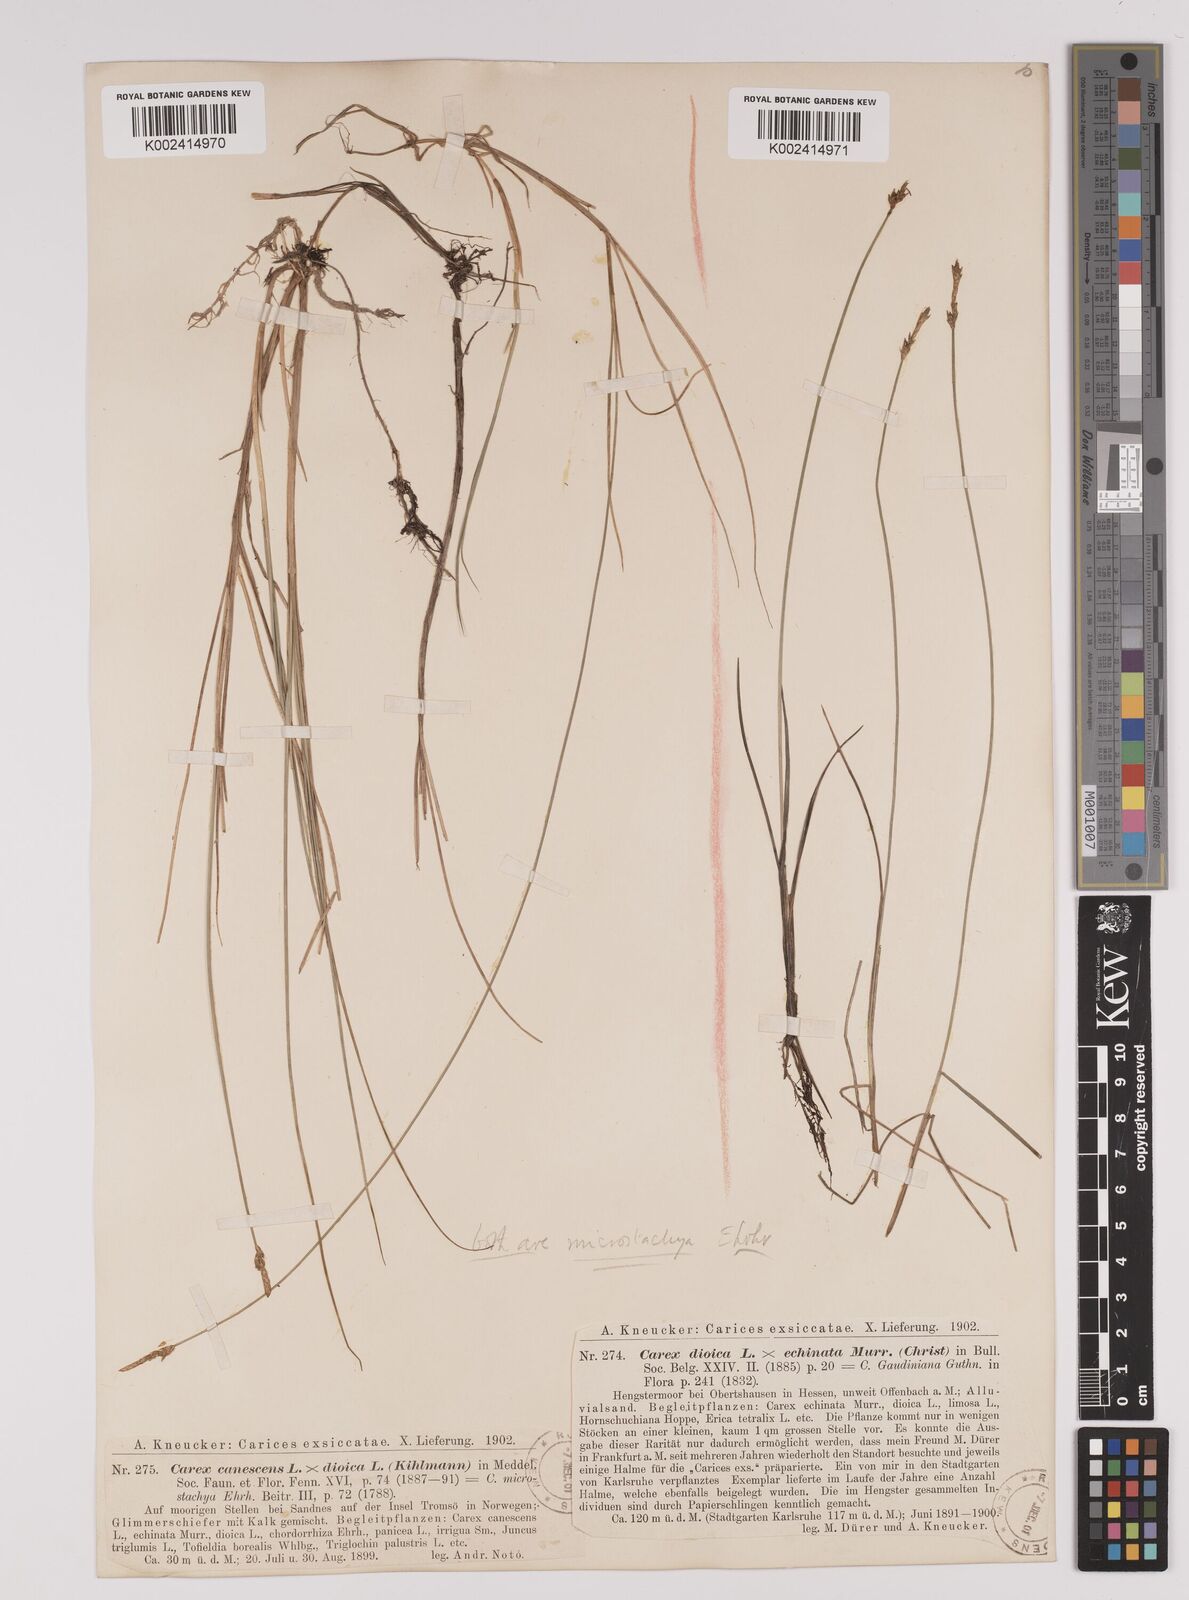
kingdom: Plantae
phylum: Tracheophyta
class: Liliopsida
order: Poales
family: Cyperaceae
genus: Carex
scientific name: Carex dioica
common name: Dioecious sedge
